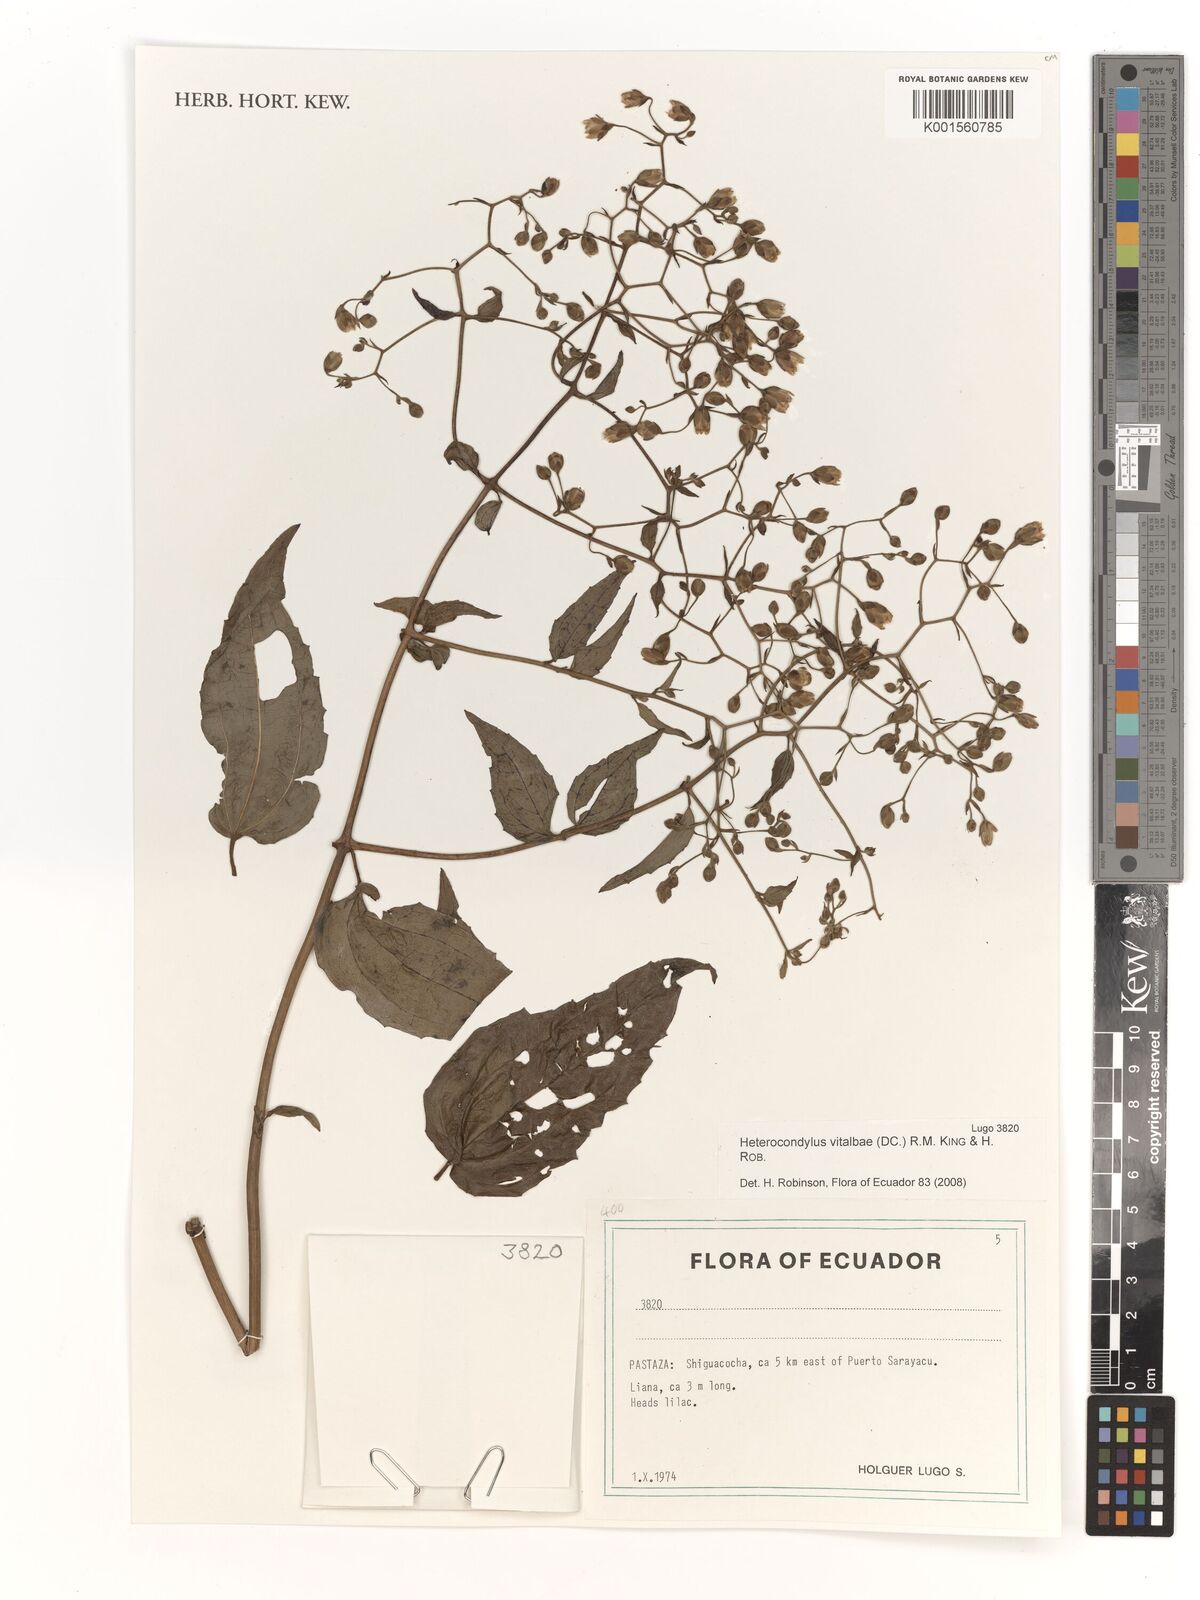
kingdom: Plantae
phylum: Tracheophyta
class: Magnoliopsida
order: Asterales
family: Asteraceae
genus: Heterocondylus
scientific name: Heterocondylus vitalbae
